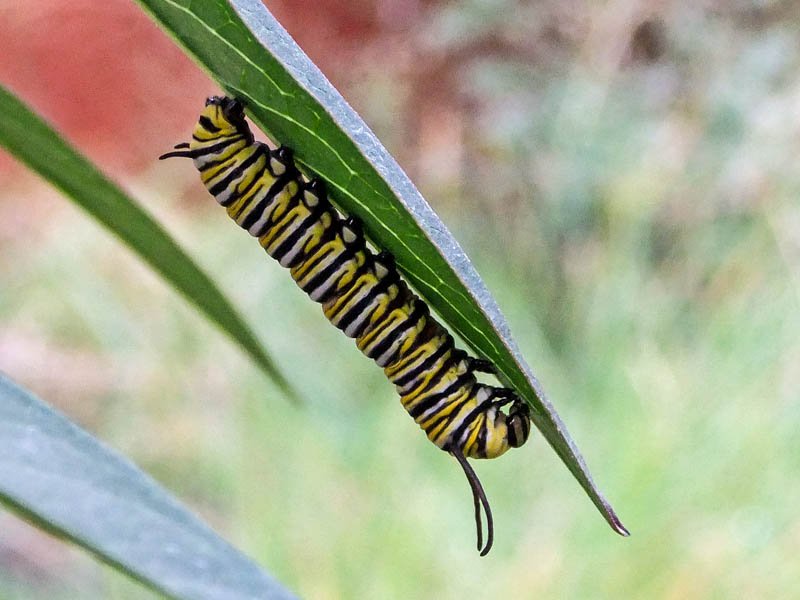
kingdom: Animalia
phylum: Arthropoda
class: Insecta
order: Lepidoptera
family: Nymphalidae
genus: Danaus
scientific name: Danaus plexippus
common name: Monarch
